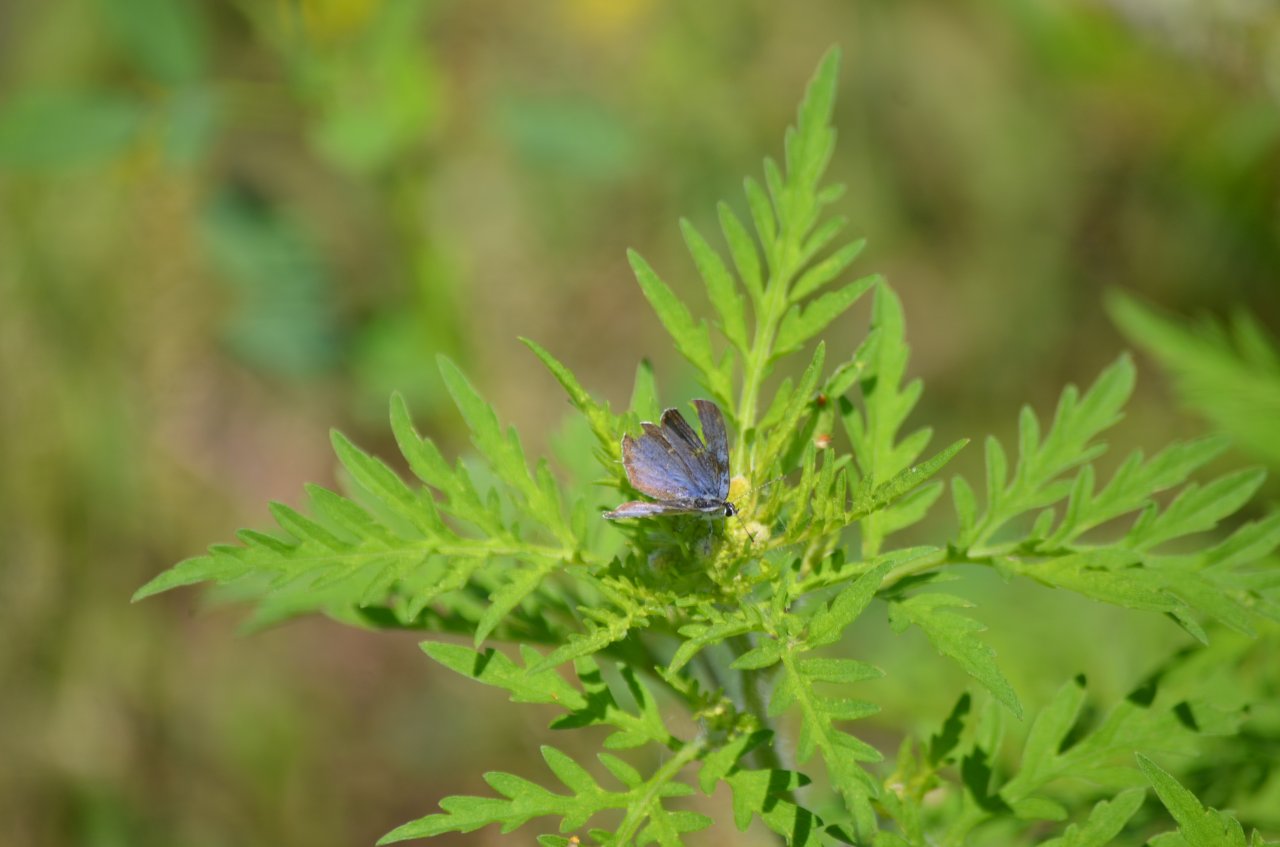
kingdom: Animalia
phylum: Arthropoda
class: Insecta
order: Lepidoptera
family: Lycaenidae
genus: Elkalyce
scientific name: Elkalyce comyntas
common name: Eastern Tailed-Blue
